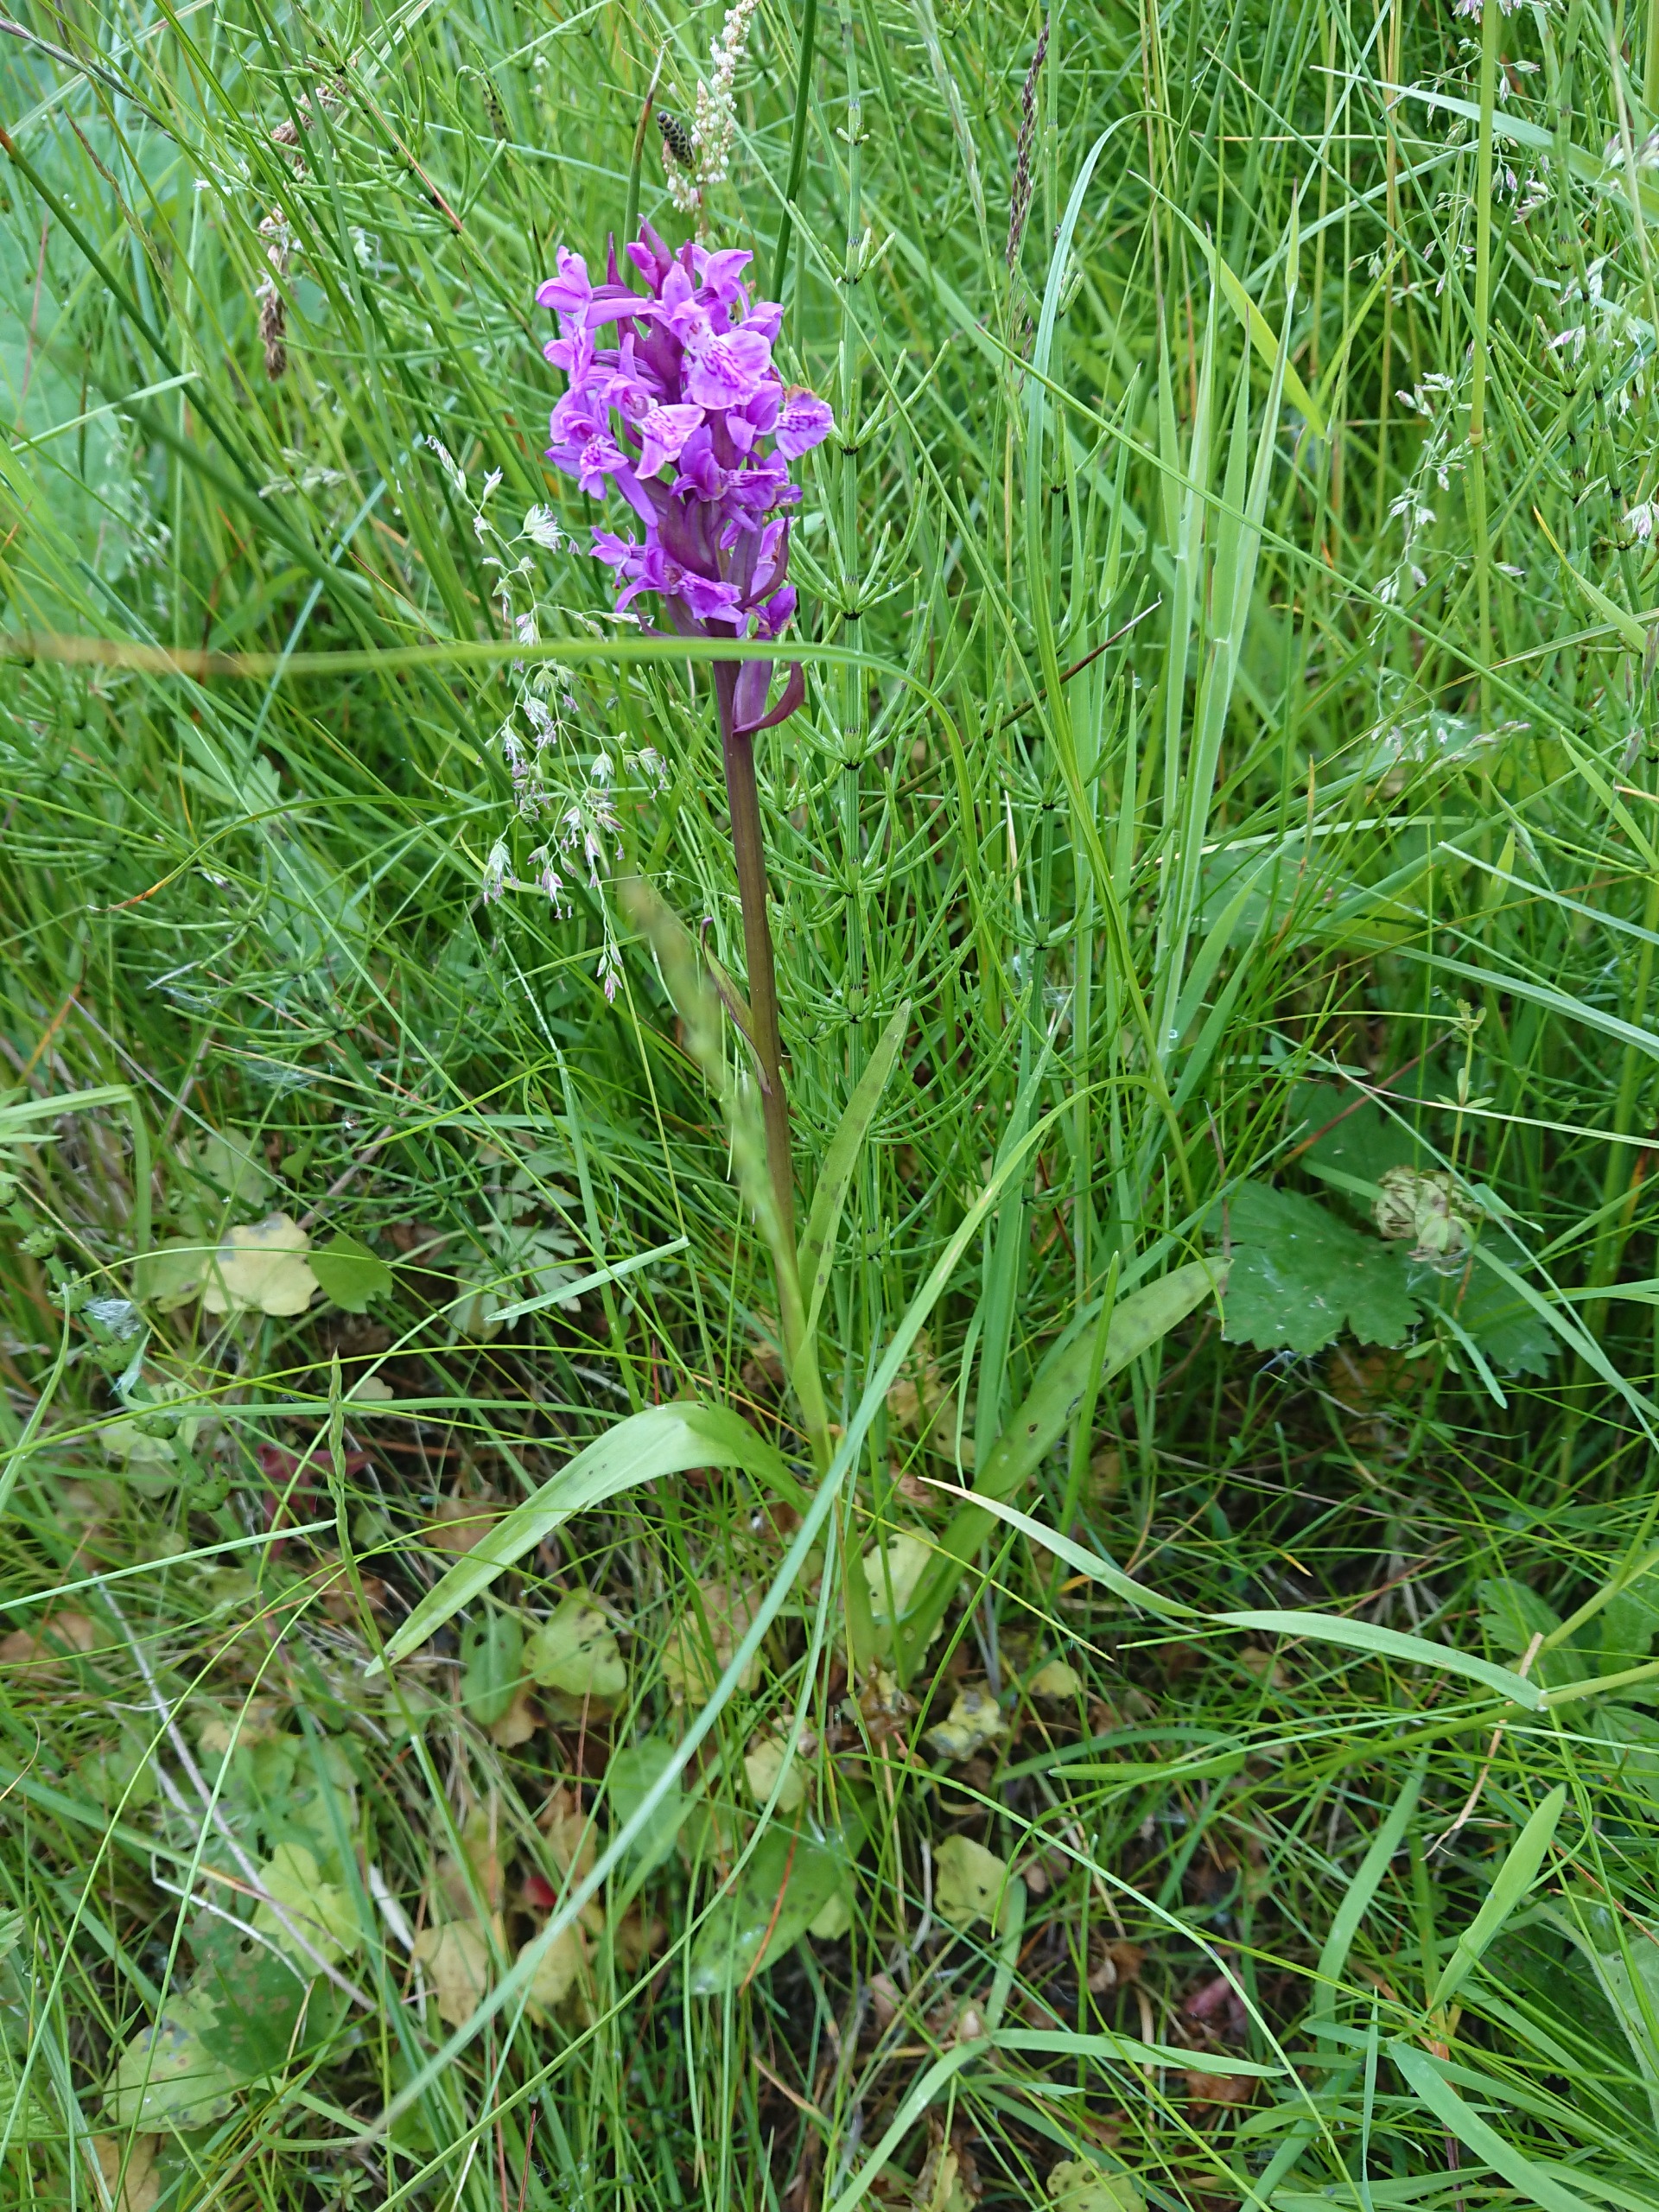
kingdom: Plantae
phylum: Tracheophyta
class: Liliopsida
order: Asparagales
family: Orchidaceae
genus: Dactylorhiza
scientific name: Dactylorhiza majalis
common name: Maj-gøgeurt
